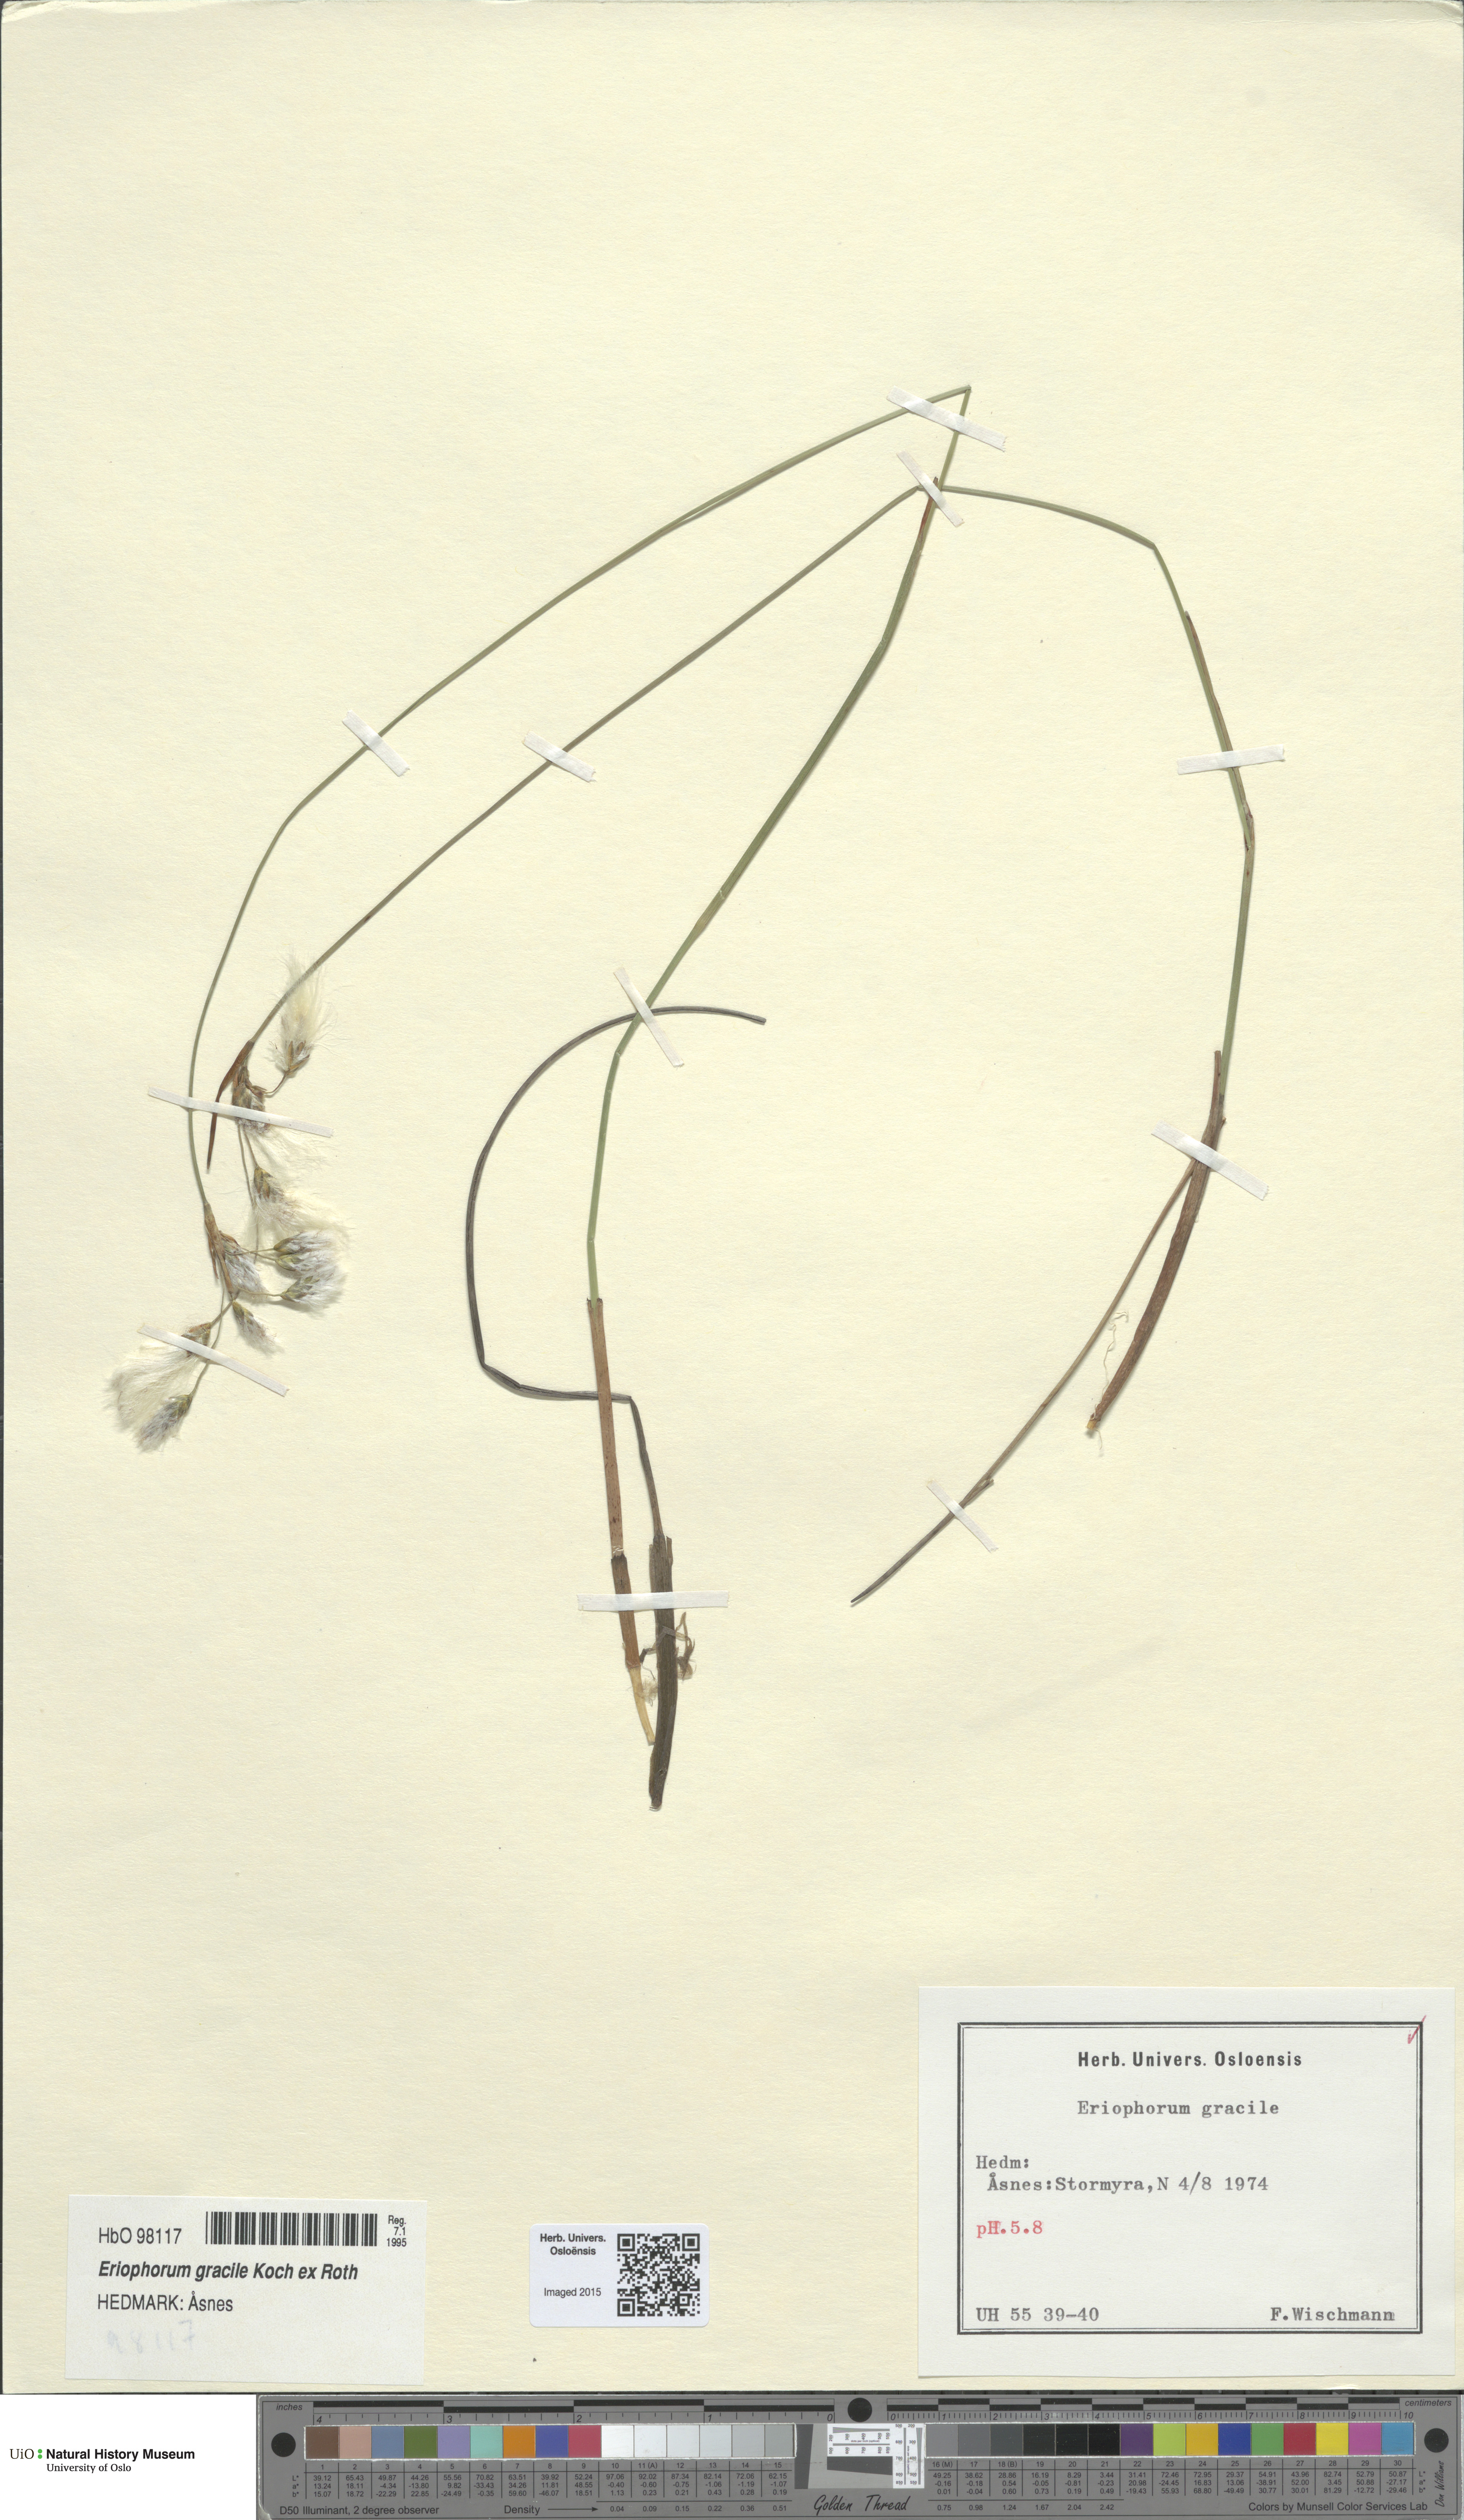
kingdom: Plantae
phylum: Tracheophyta
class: Liliopsida
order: Poales
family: Cyperaceae
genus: Eriophorum
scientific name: Eriophorum gracile
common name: Slender cottongrass
